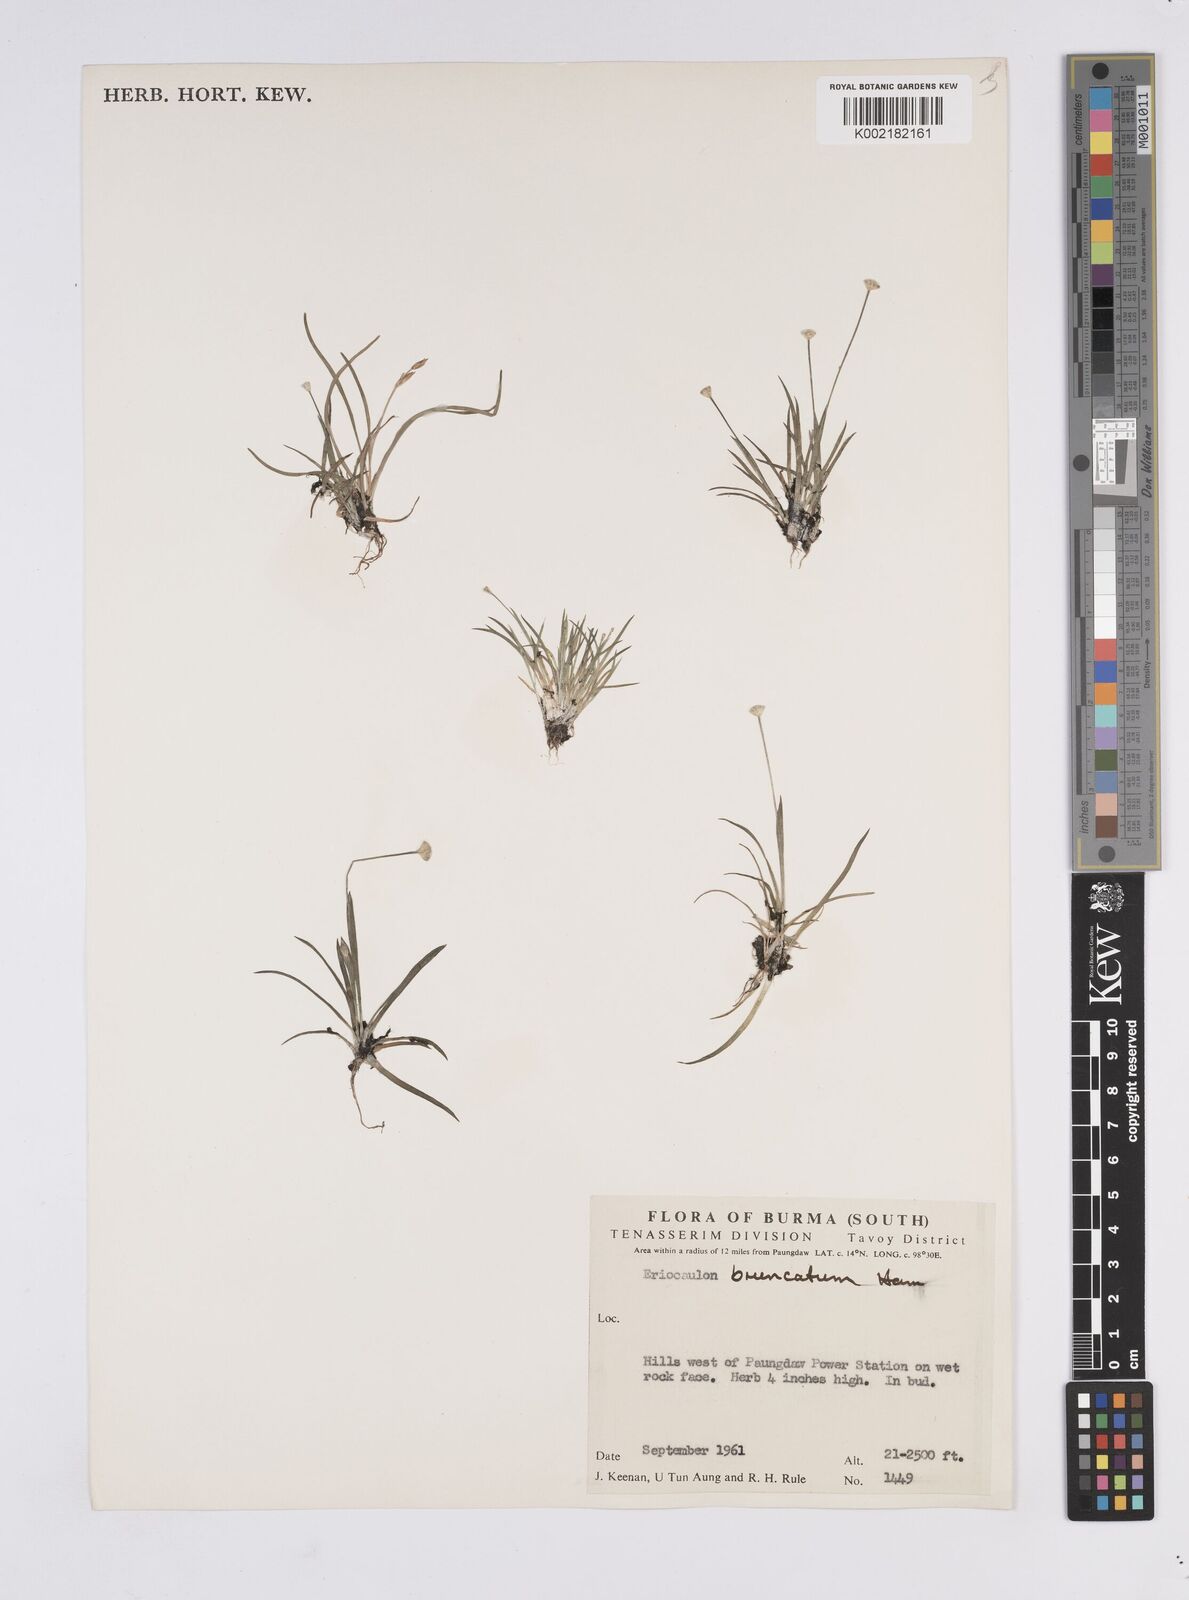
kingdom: Plantae
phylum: Tracheophyta
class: Liliopsida
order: Poales
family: Eriocaulaceae
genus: Eriocaulon
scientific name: Eriocaulon
